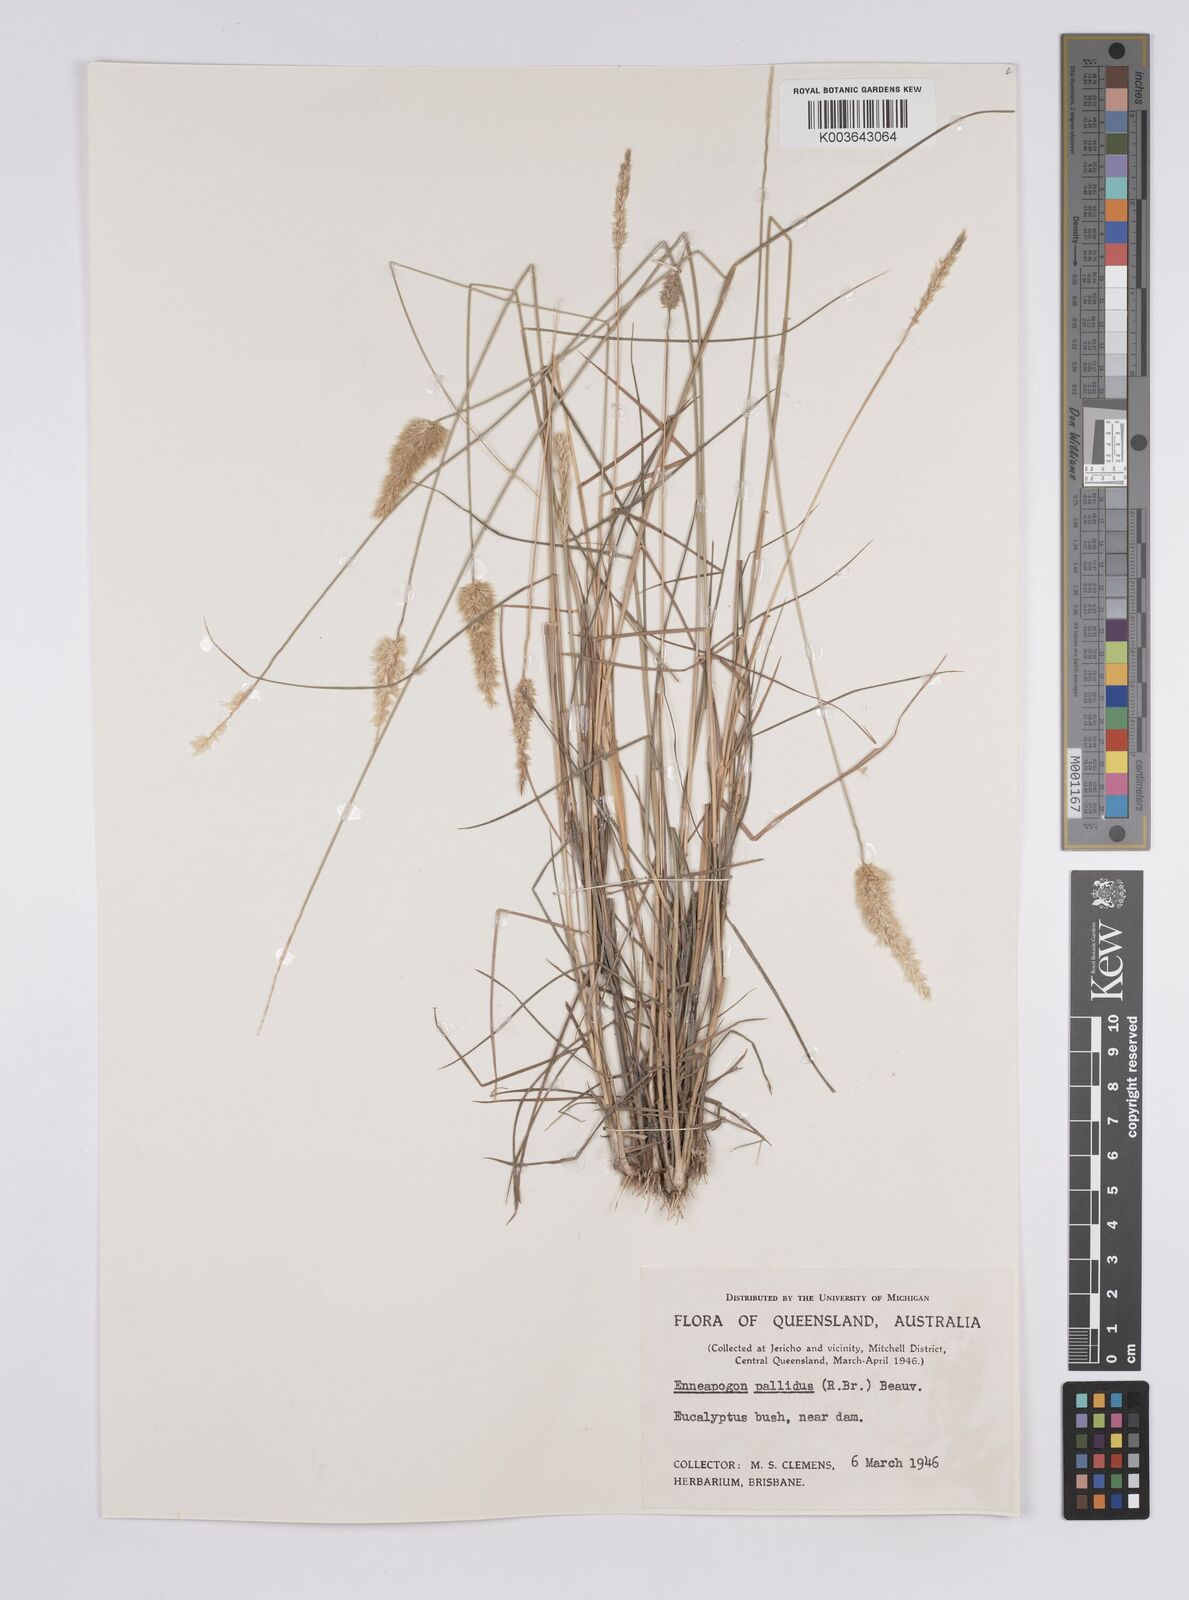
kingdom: Plantae
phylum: Tracheophyta
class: Liliopsida
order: Poales
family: Poaceae
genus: Enneapogon
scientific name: Enneapogon pallidus
